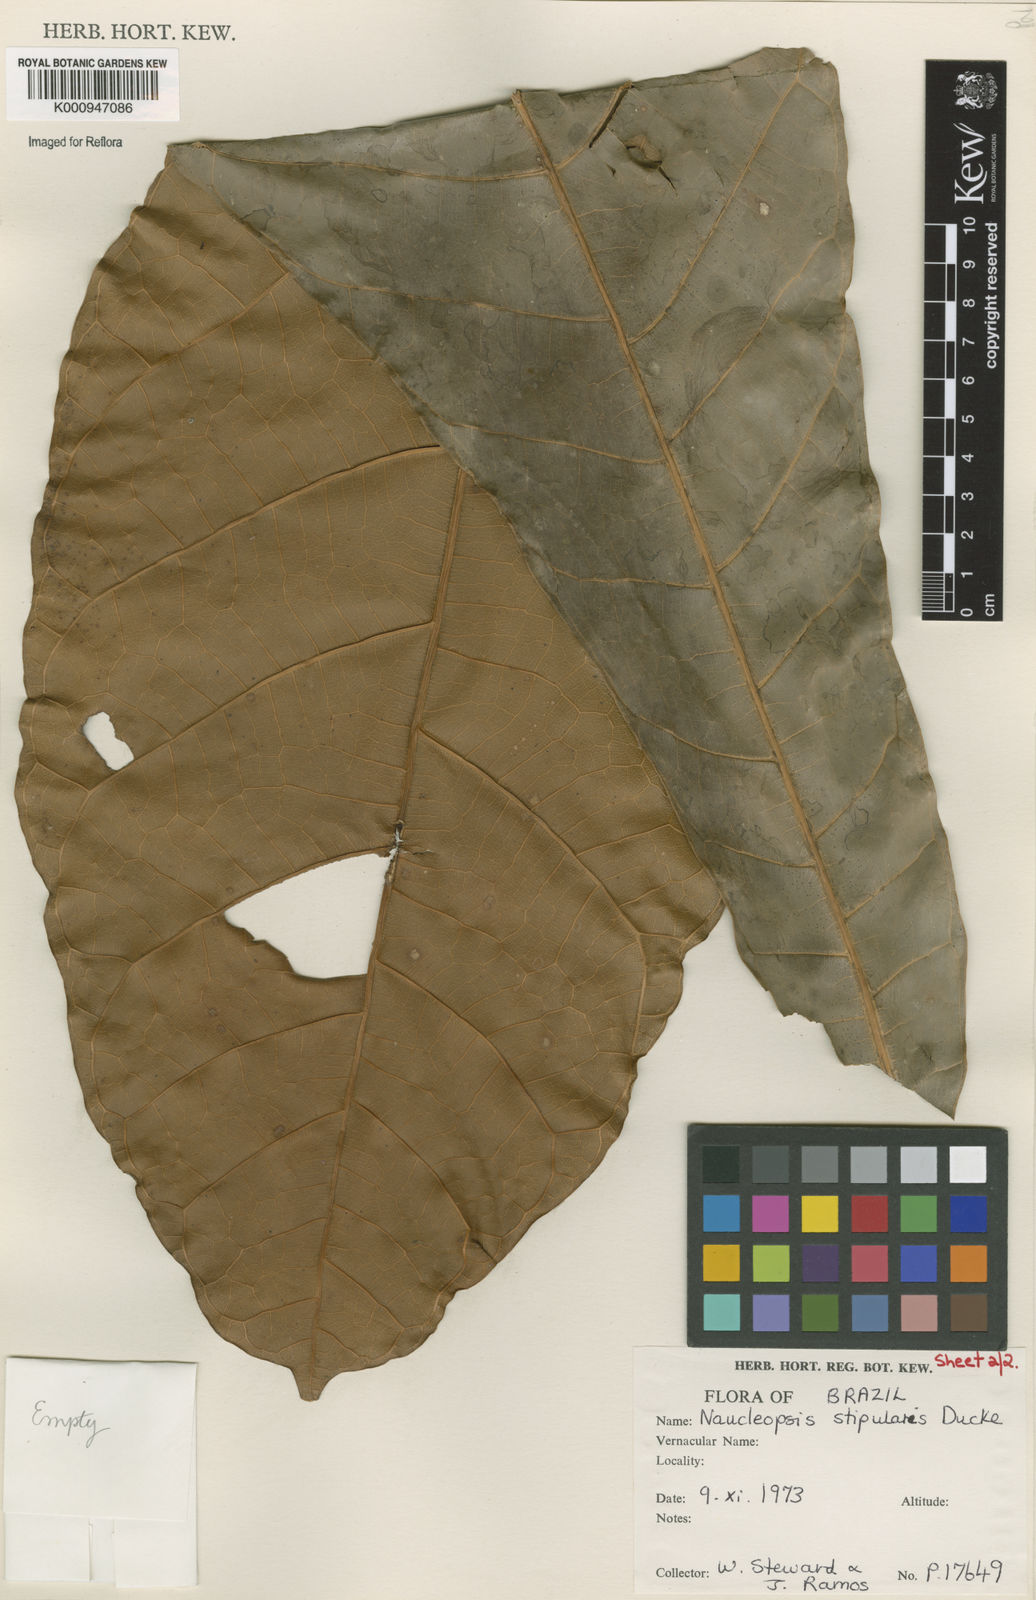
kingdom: Plantae
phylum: Tracheophyta
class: Magnoliopsida
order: Rosales
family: Moraceae
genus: Naucleopsis
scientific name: Naucleopsis stipularis
